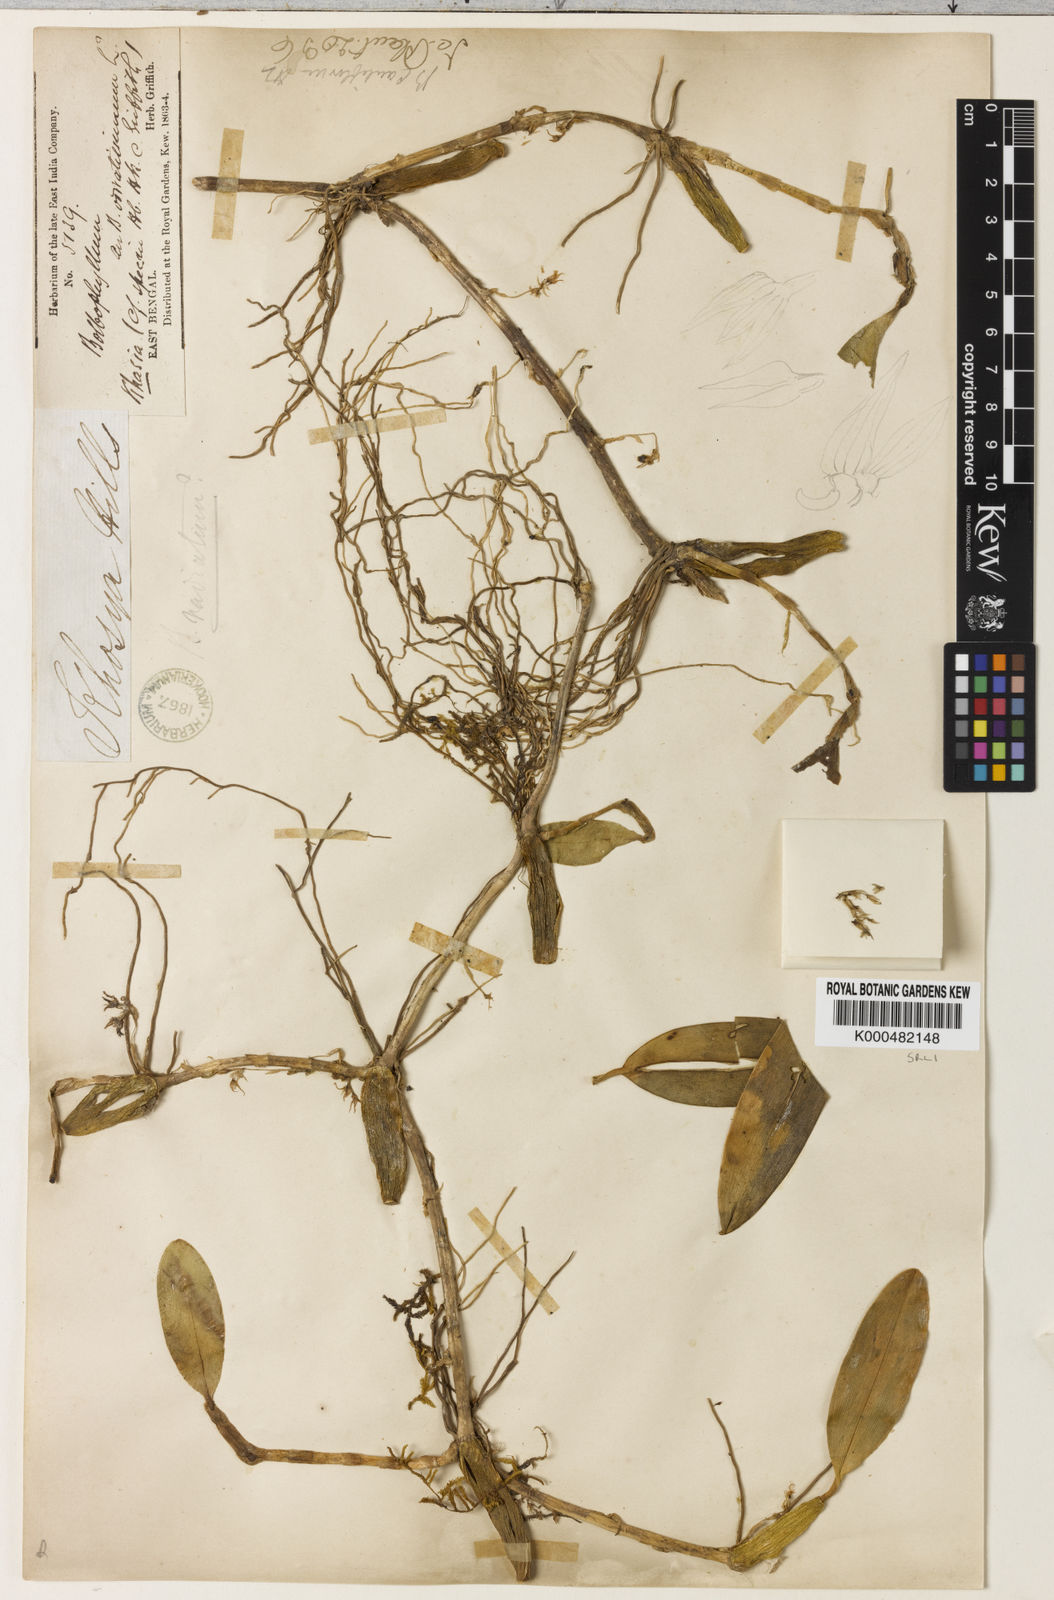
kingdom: Plantae
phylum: Tracheophyta
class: Liliopsida
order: Asparagales
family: Orchidaceae
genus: Bulbophyllum
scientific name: Bulbophyllum cauliflorum
